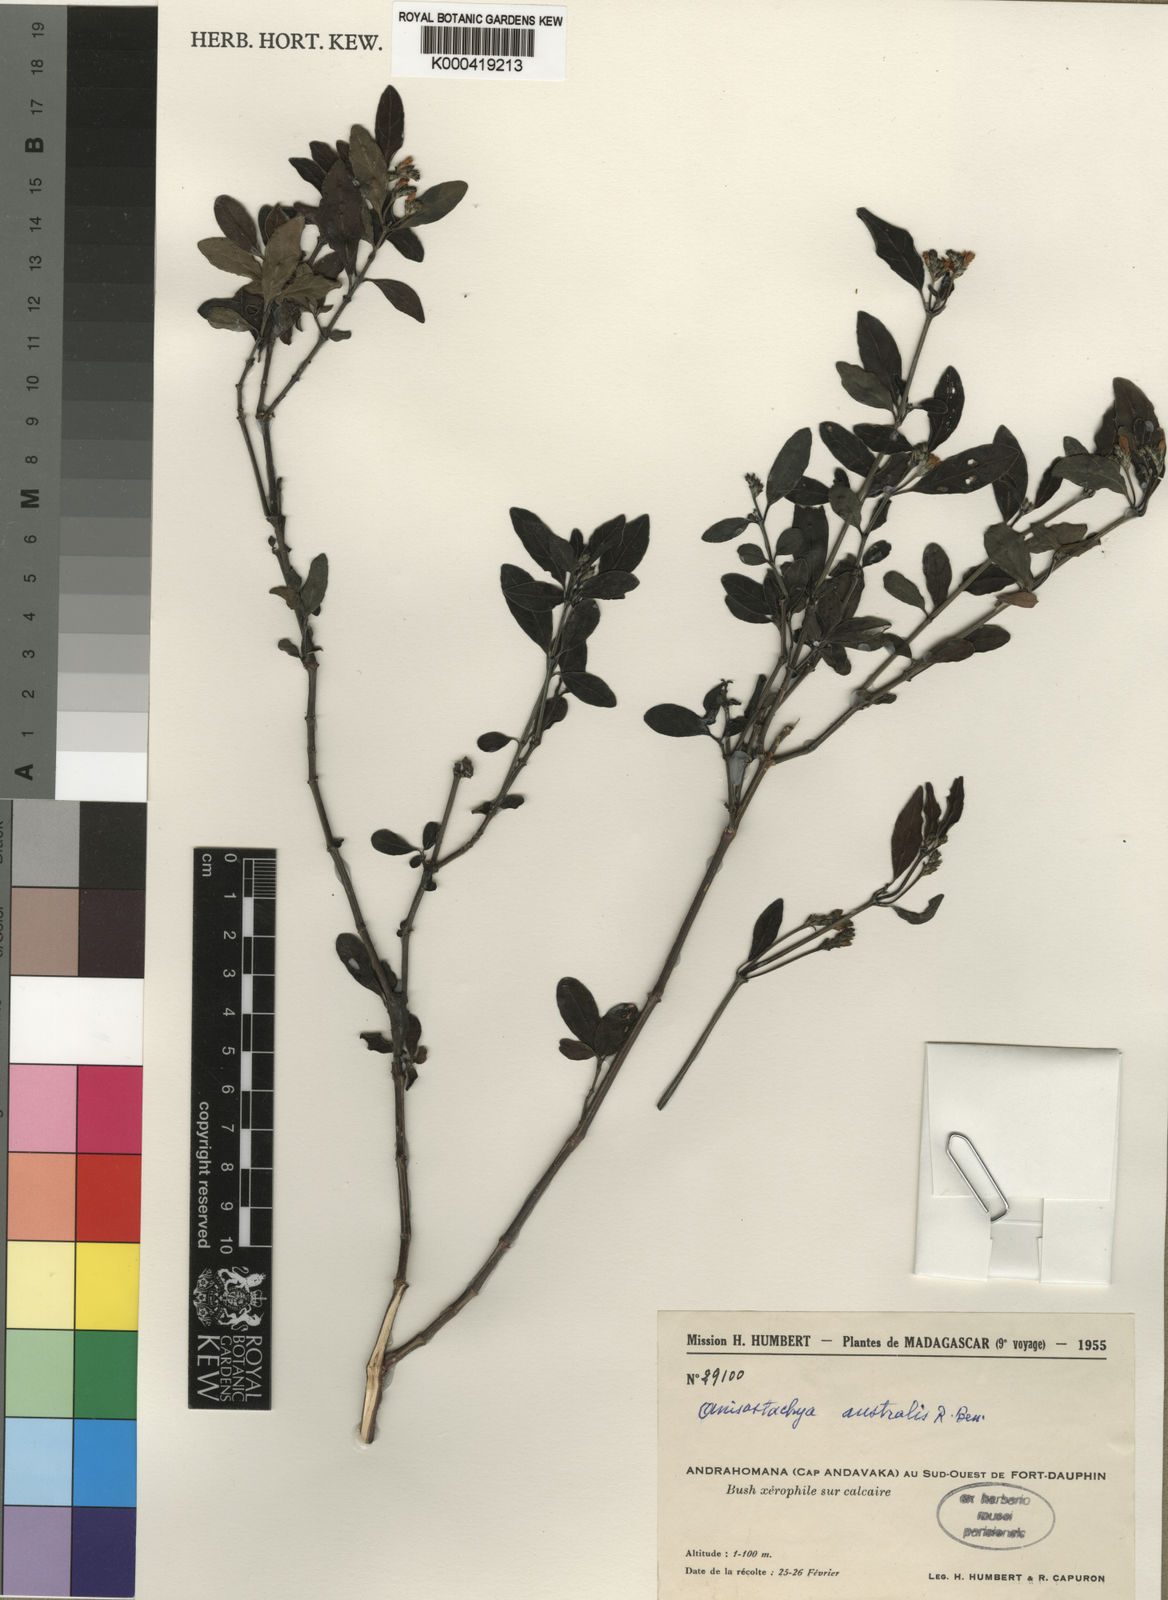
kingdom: Plantae
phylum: Tracheophyta
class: Magnoliopsida
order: Lamiales
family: Acanthaceae
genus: Justicia
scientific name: Justicia
